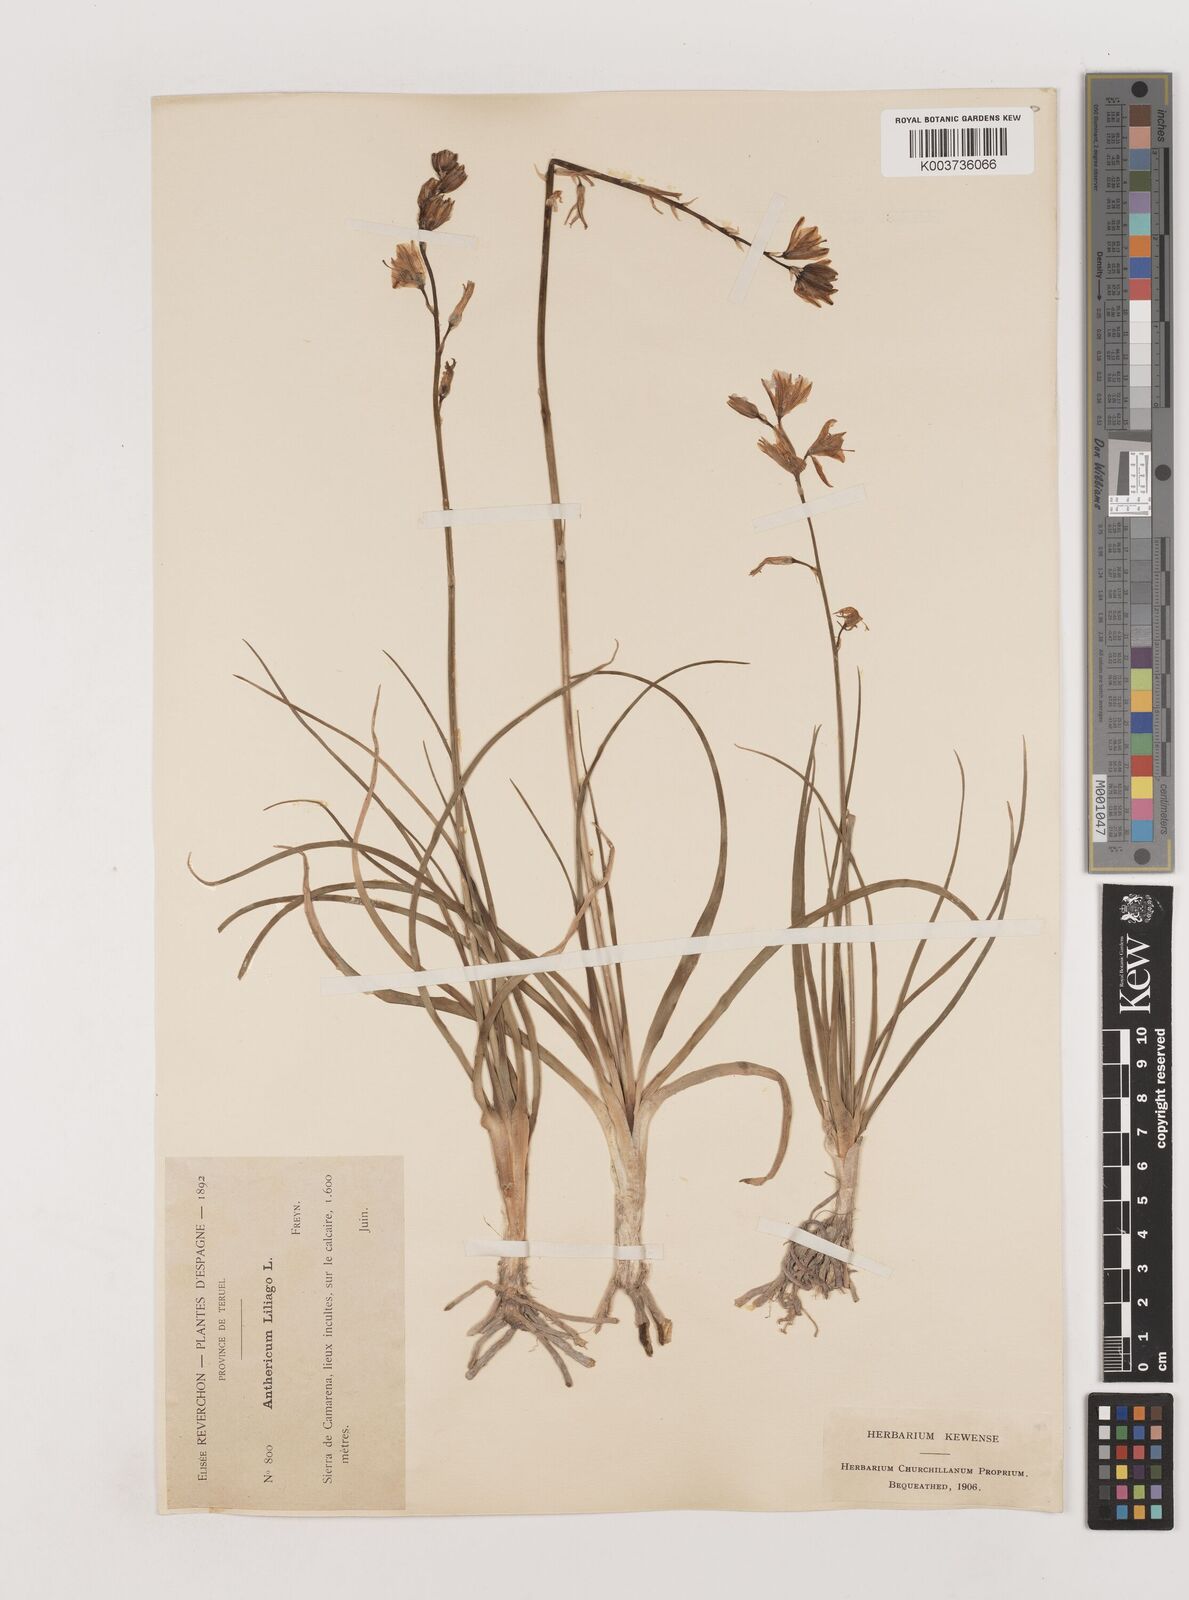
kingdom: Plantae
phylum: Tracheophyta
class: Liliopsida
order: Asparagales
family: Asparagaceae
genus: Anthericum
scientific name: Anthericum liliago
